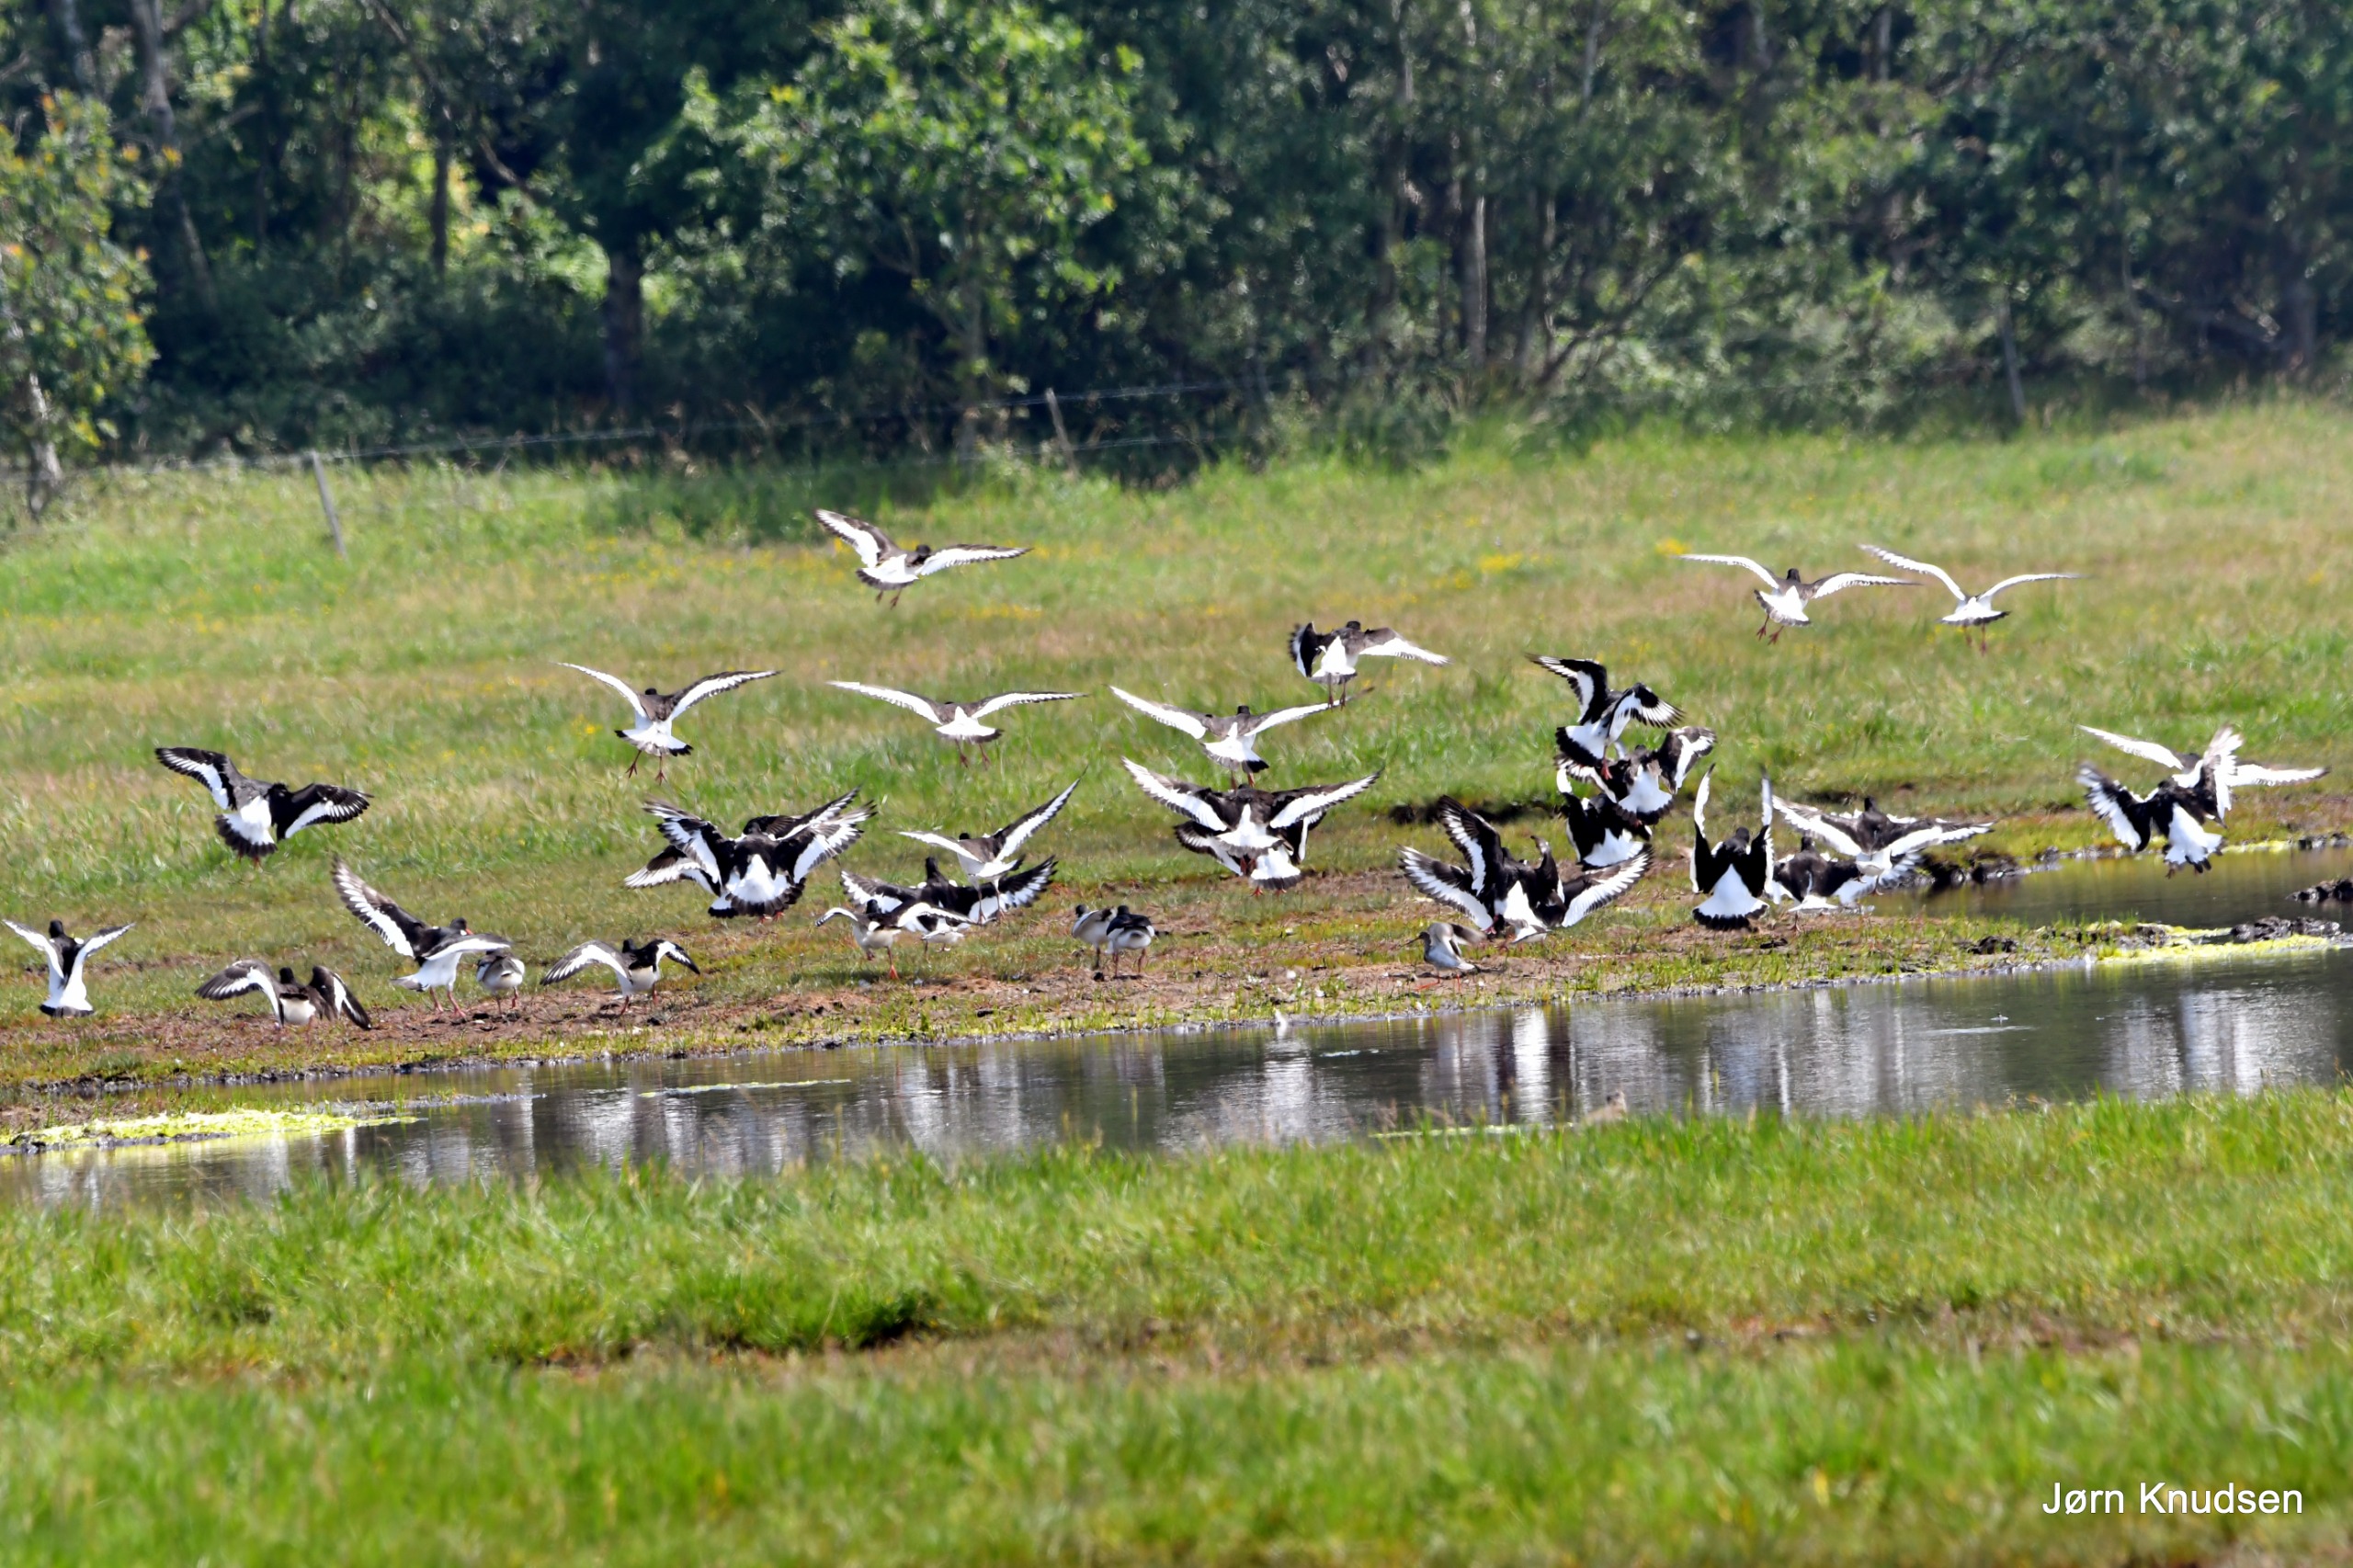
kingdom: Animalia
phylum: Chordata
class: Aves
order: Charadriiformes
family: Haematopodidae
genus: Haematopus
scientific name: Haematopus ostralegus
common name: Strandskade
